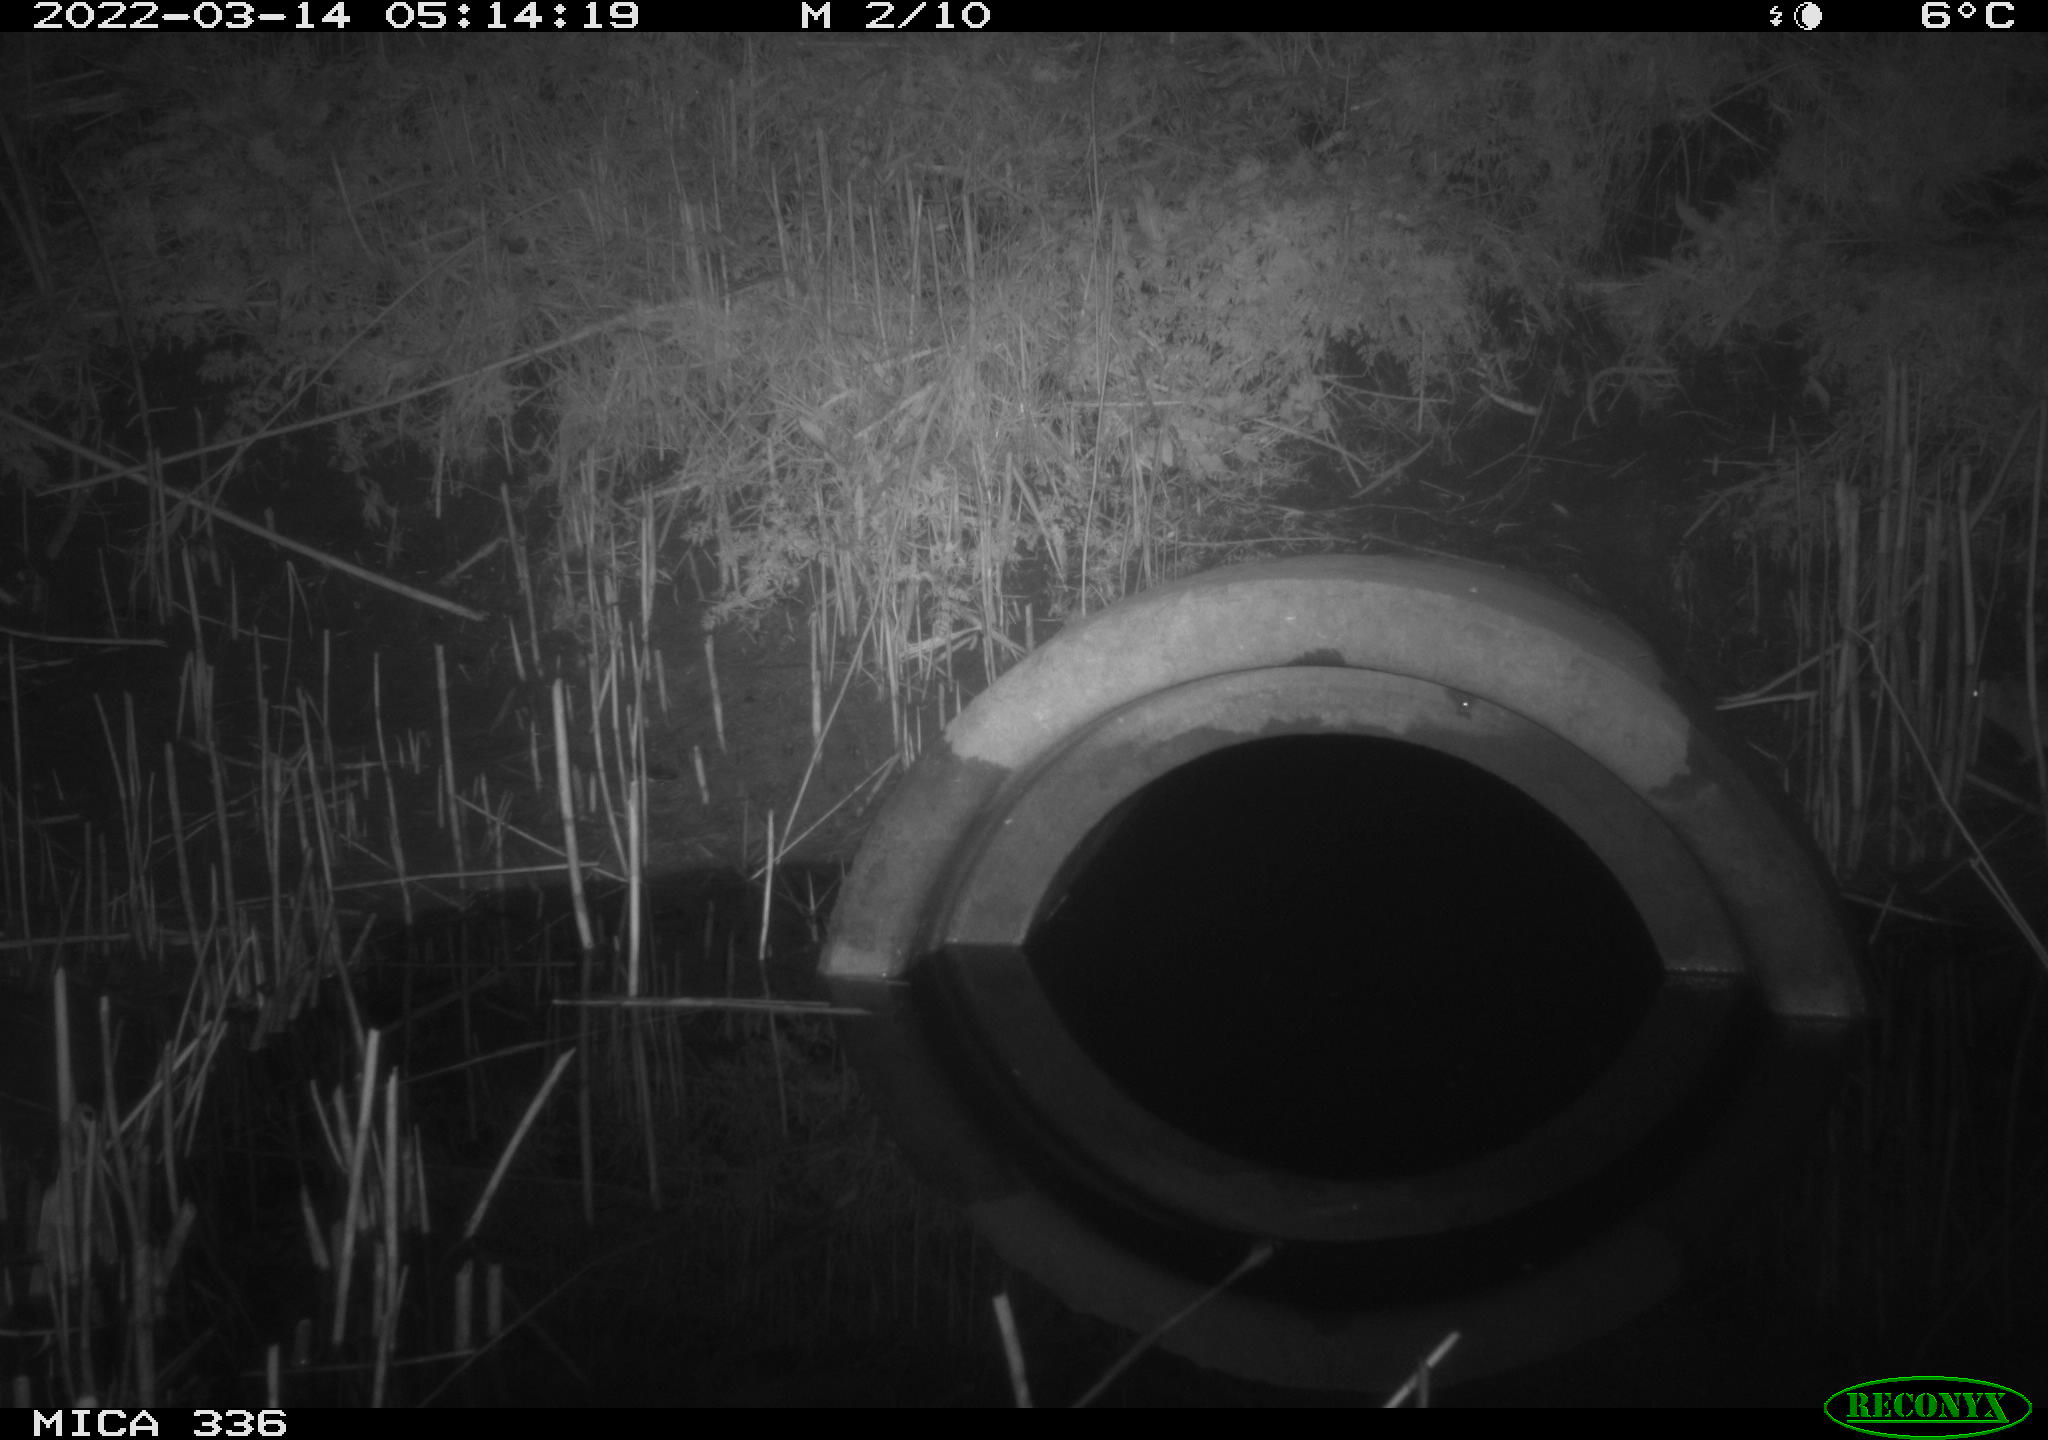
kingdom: Animalia
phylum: Chordata
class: Mammalia
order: Rodentia
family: Muridae
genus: Rattus
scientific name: Rattus norvegicus
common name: Brown rat
